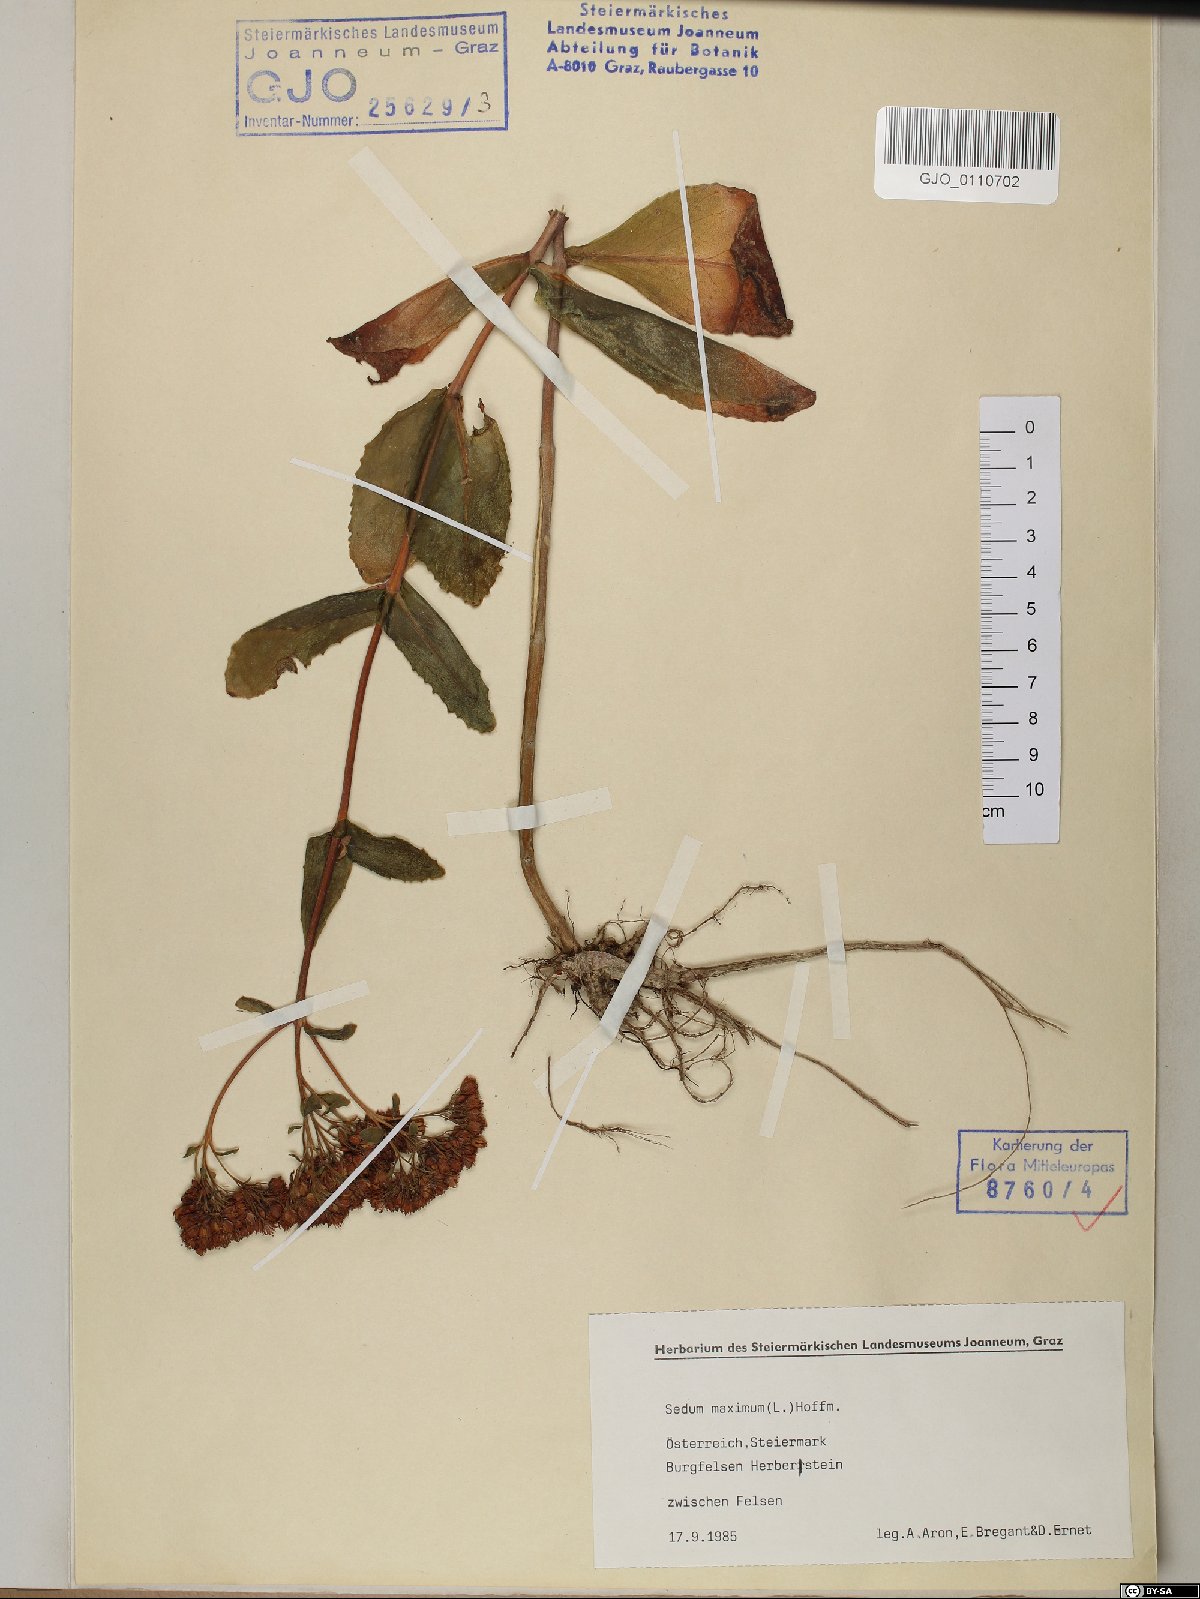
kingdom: Plantae
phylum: Tracheophyta
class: Magnoliopsida
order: Saxifragales
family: Crassulaceae
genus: Hylotelephium
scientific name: Hylotelephium maximum
